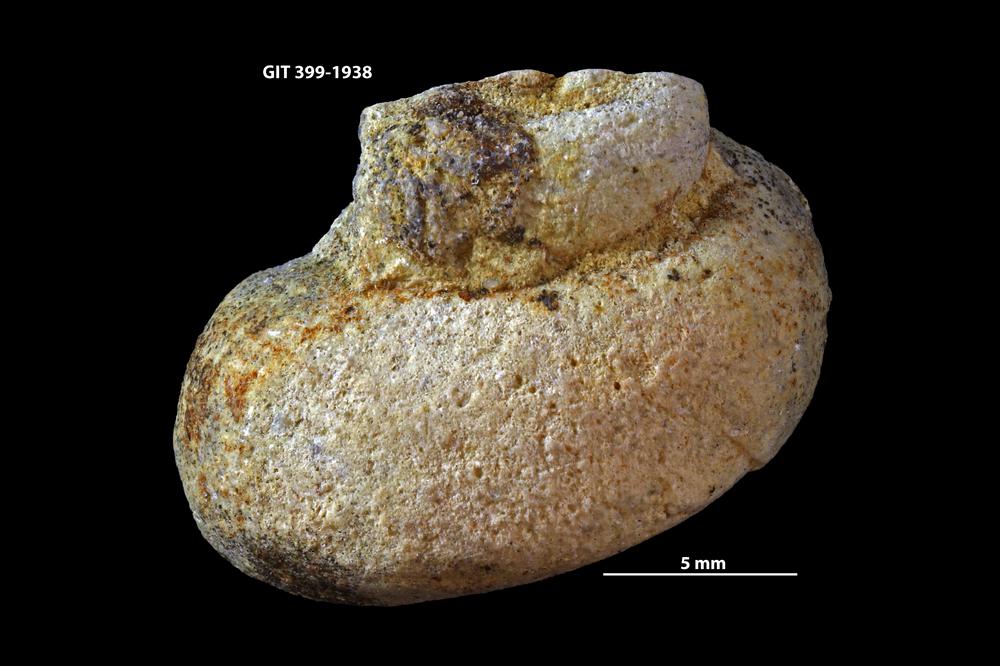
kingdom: Animalia
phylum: Mollusca
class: Gastropoda
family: Holopeidae
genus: Holopea
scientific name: Holopea
